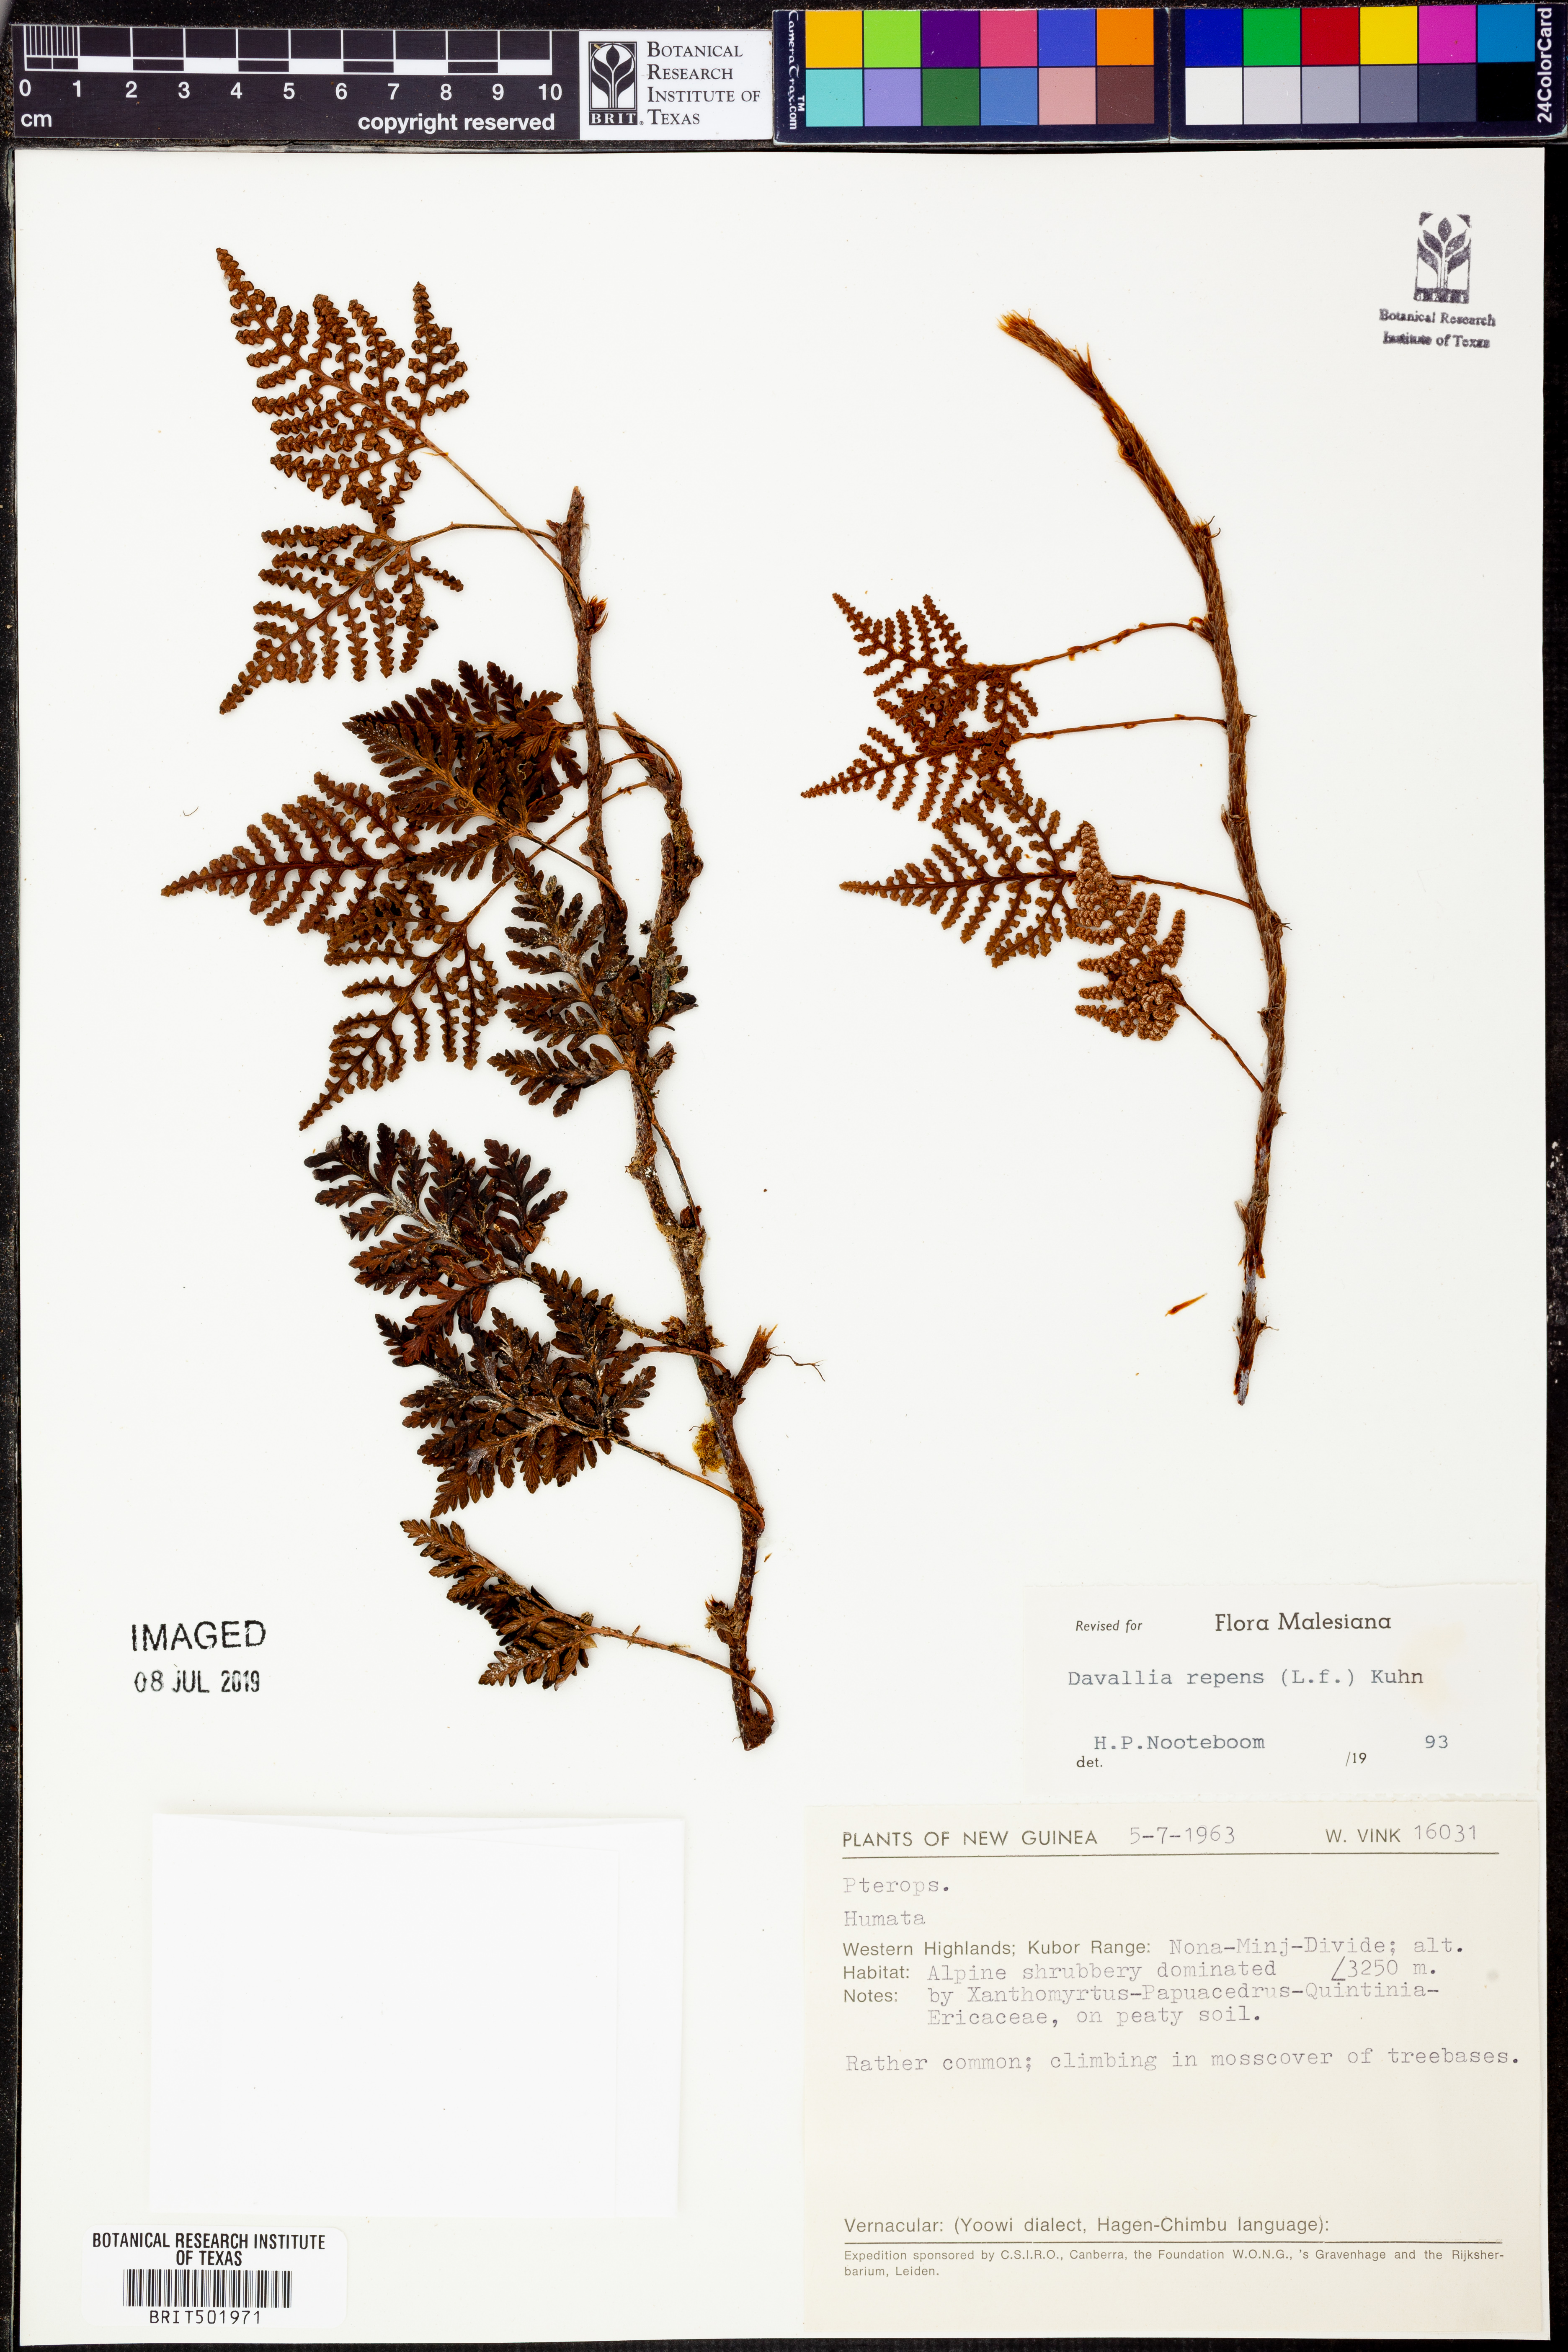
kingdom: Plantae
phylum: Tracheophyta
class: Polypodiopsida
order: Polypodiales
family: Davalliaceae
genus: Davallia
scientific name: Davallia repens
